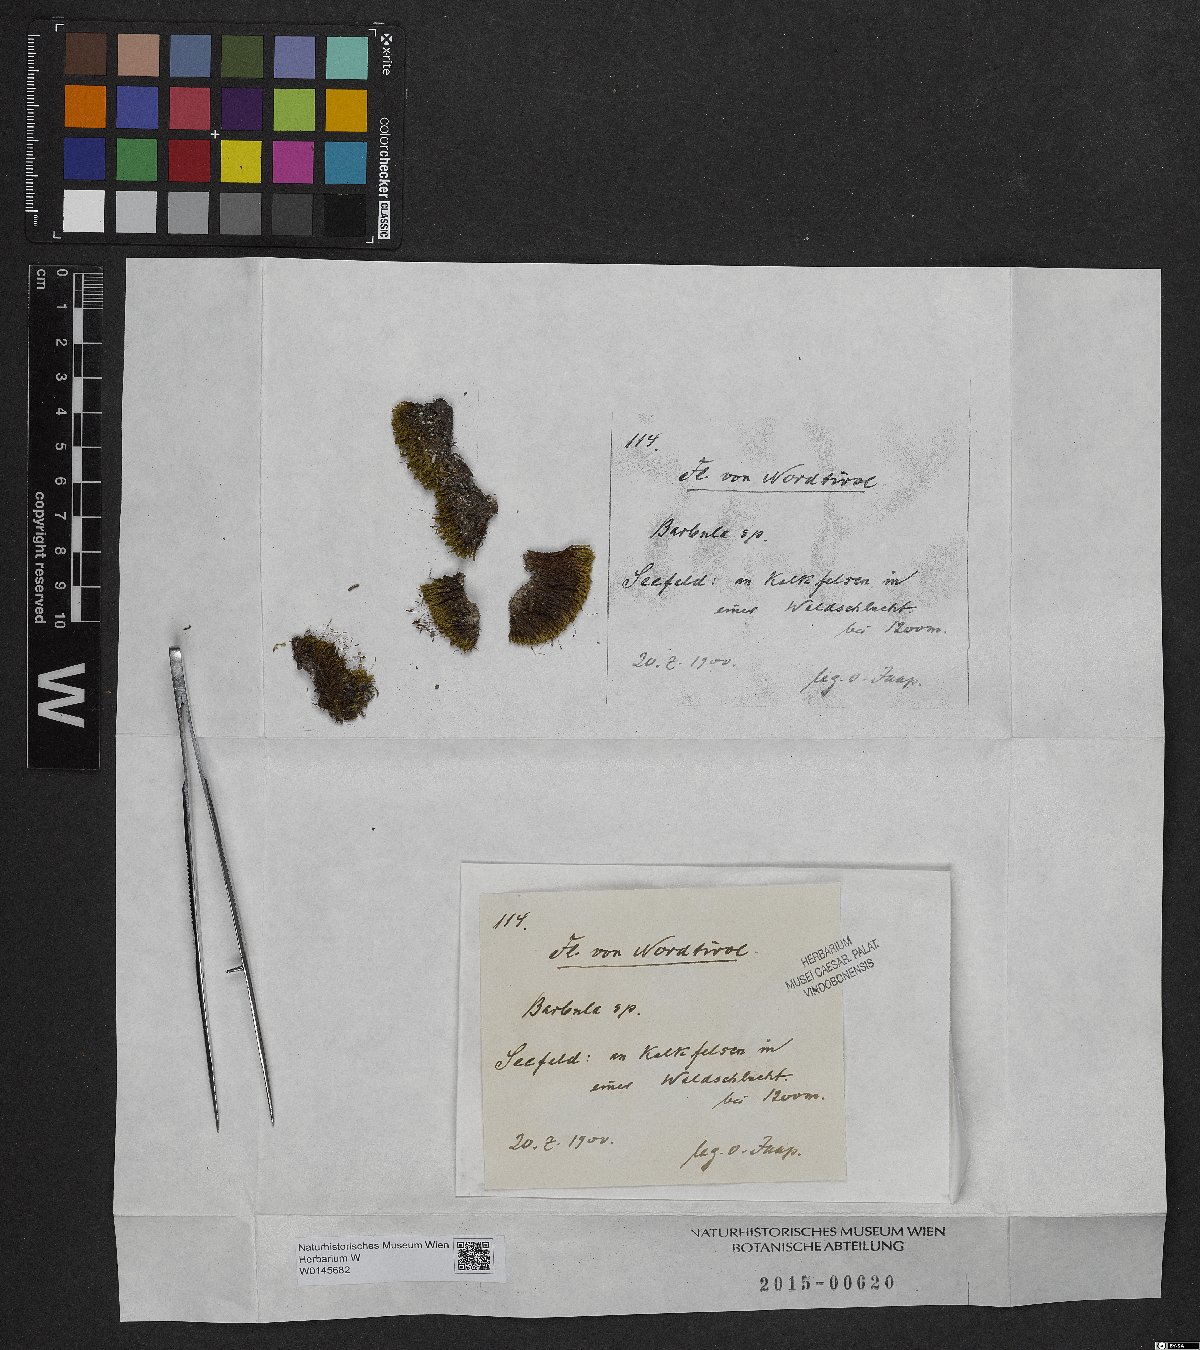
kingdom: Plantae
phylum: Bryophyta
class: Bryopsida
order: Pottiales
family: Pottiaceae
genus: Barbula
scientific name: Barbula
